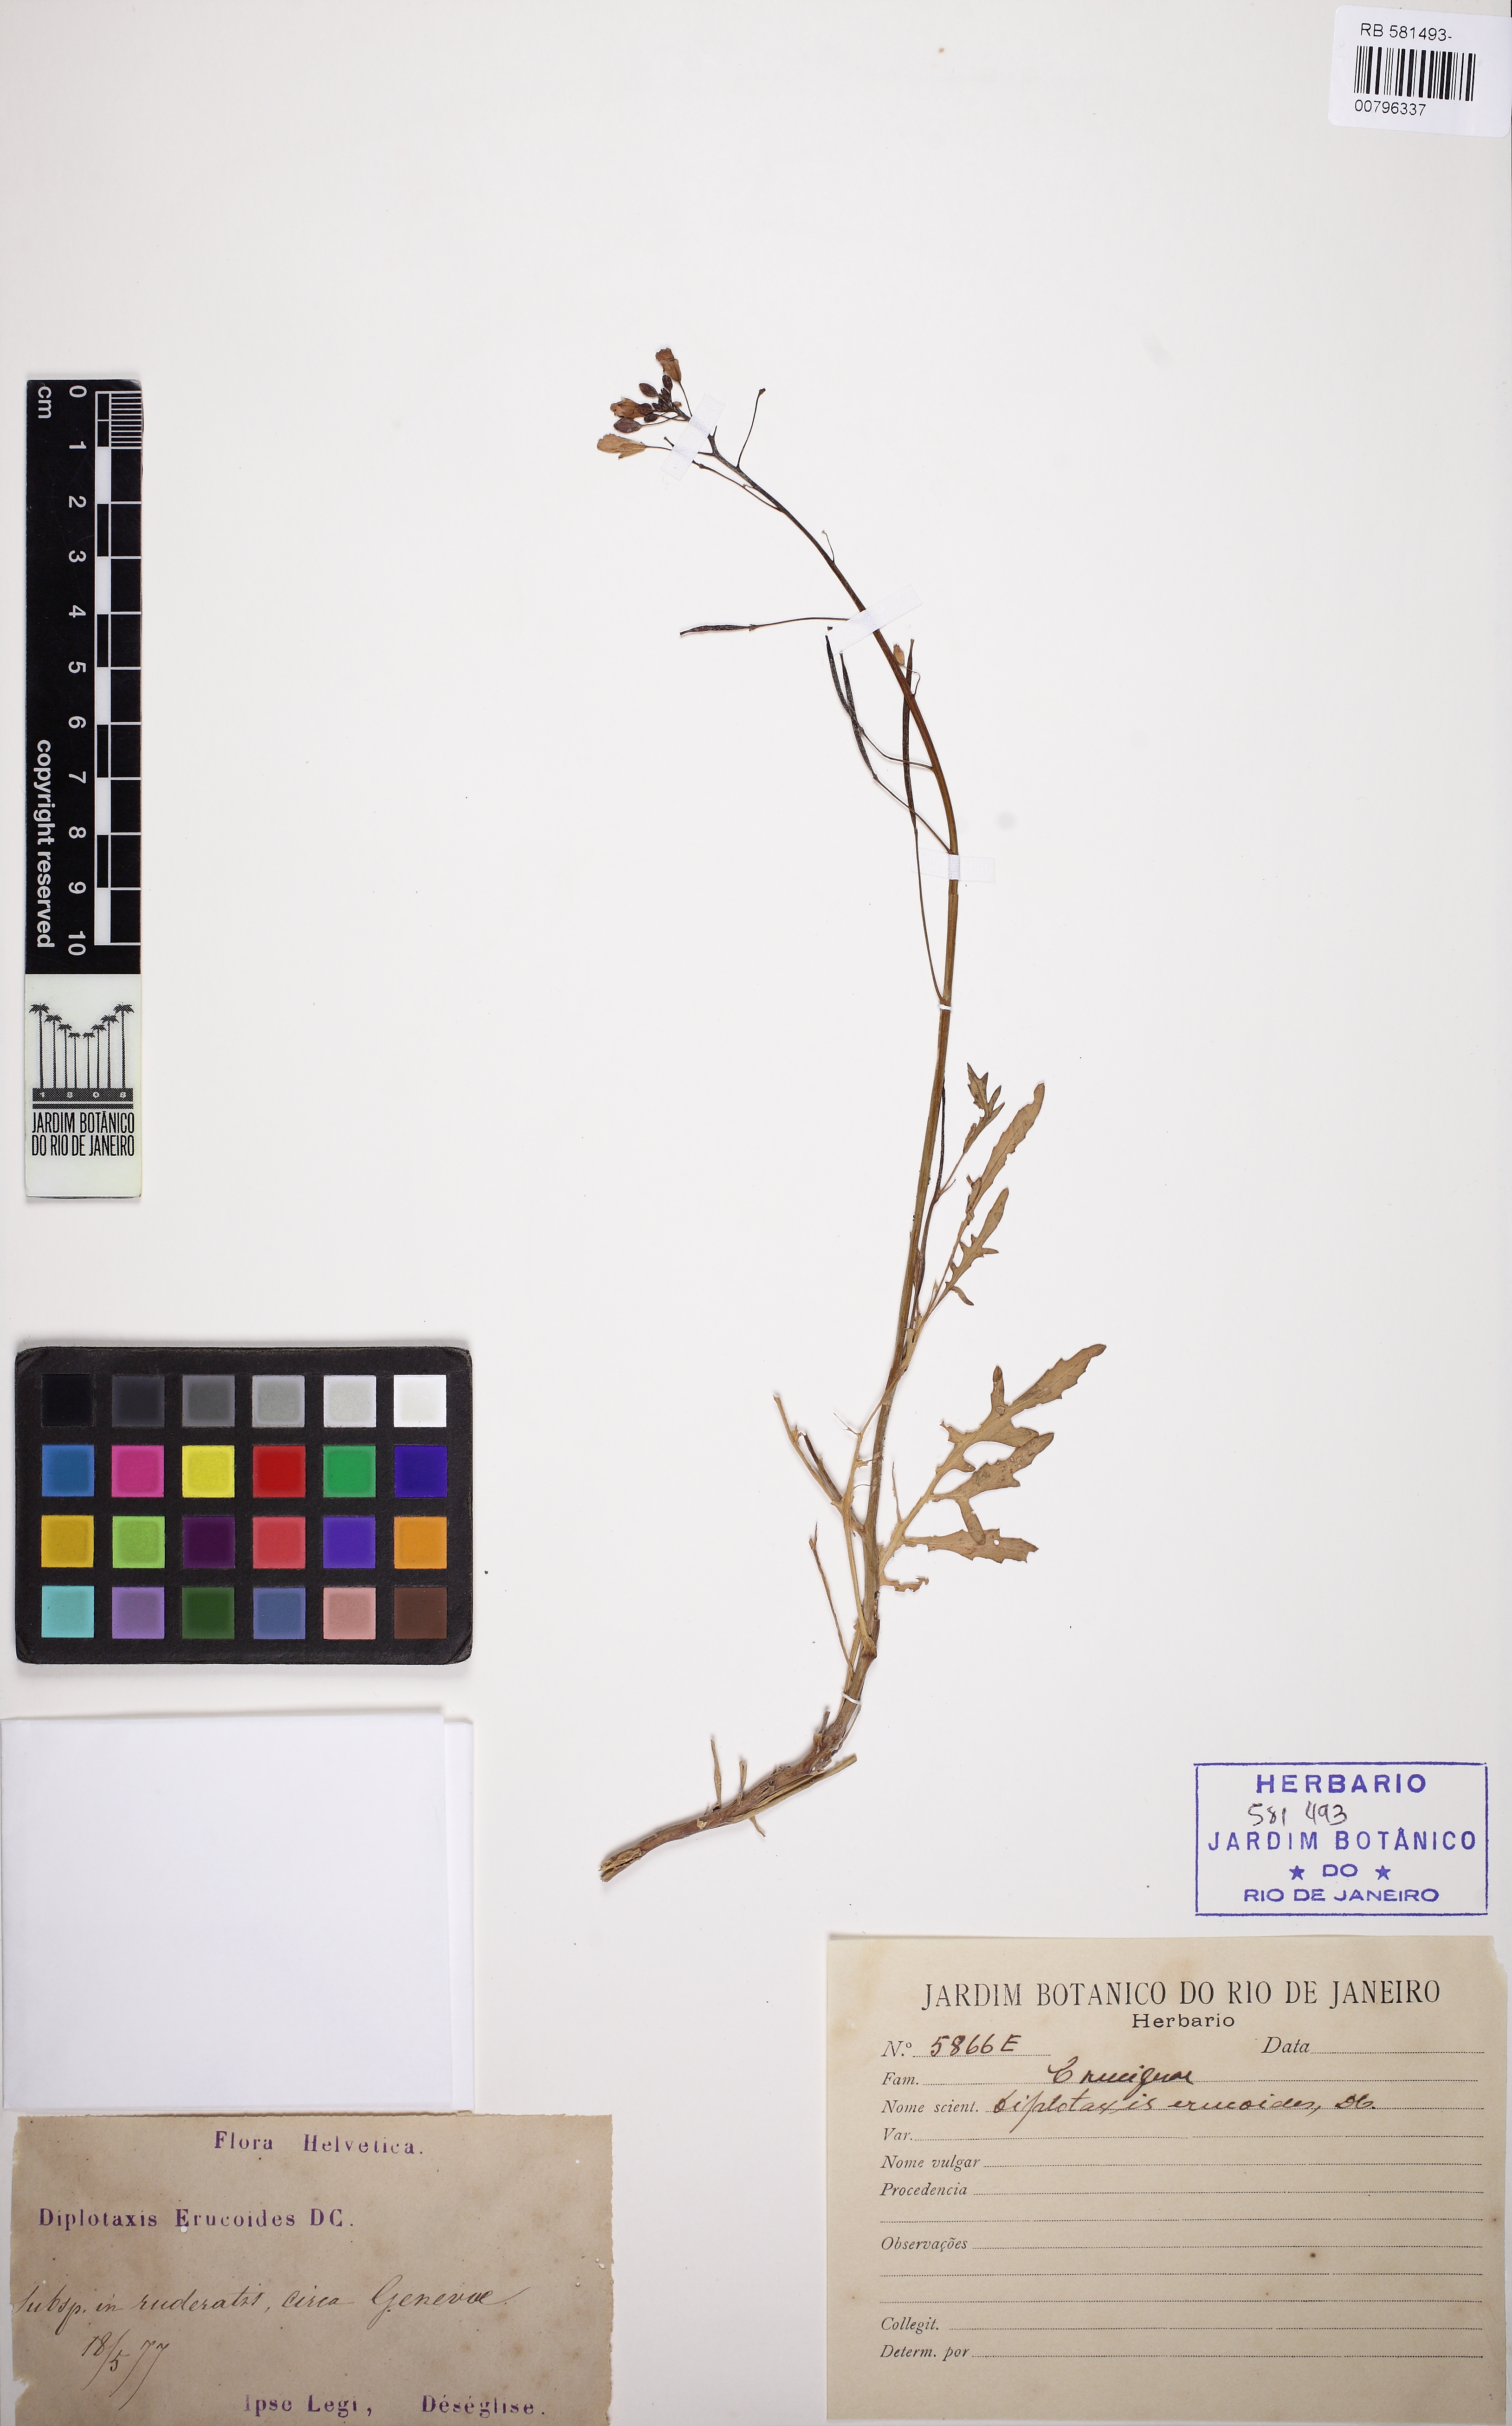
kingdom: Plantae
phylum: Tracheophyta
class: Magnoliopsida
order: Brassicales
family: Brassicaceae
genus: Diplotaxis
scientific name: Diplotaxis erucoides
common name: White rocket
